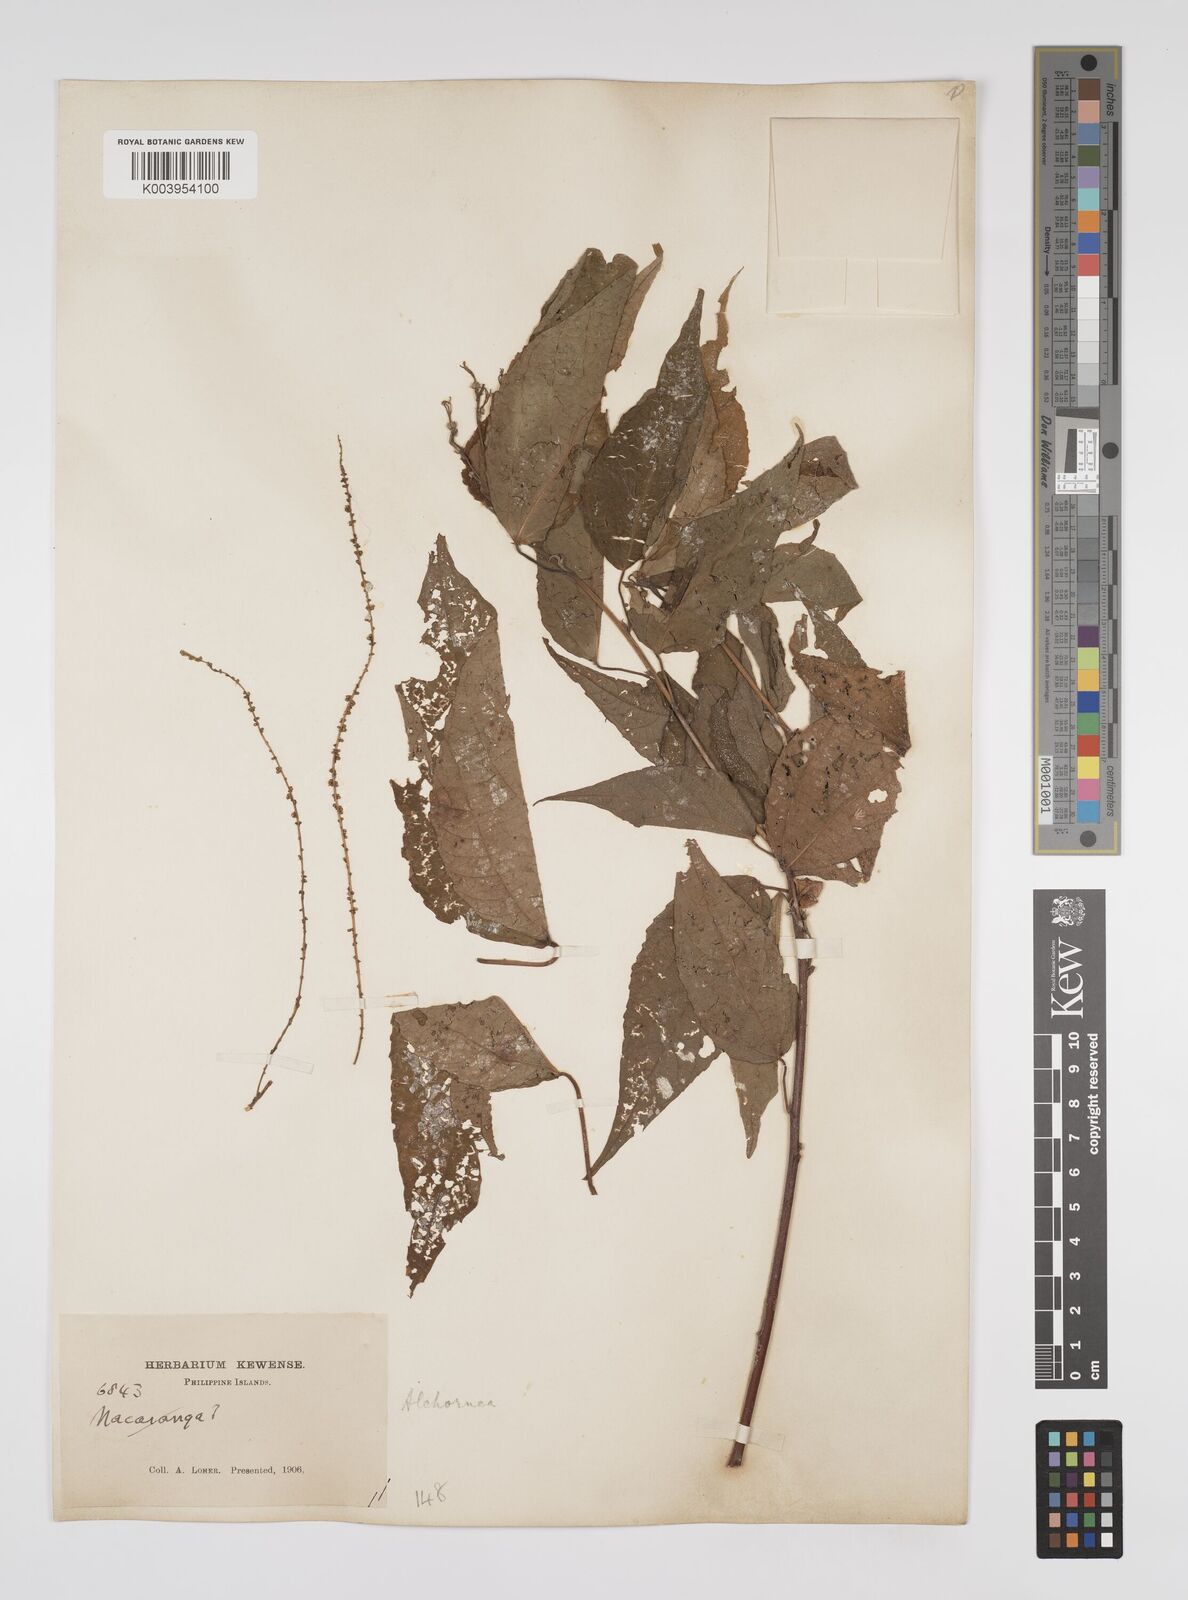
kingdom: Plantae
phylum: Tracheophyta
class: Magnoliopsida
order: Malpighiales
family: Euphorbiaceae
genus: Alchornea
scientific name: Alchornea parviflora
